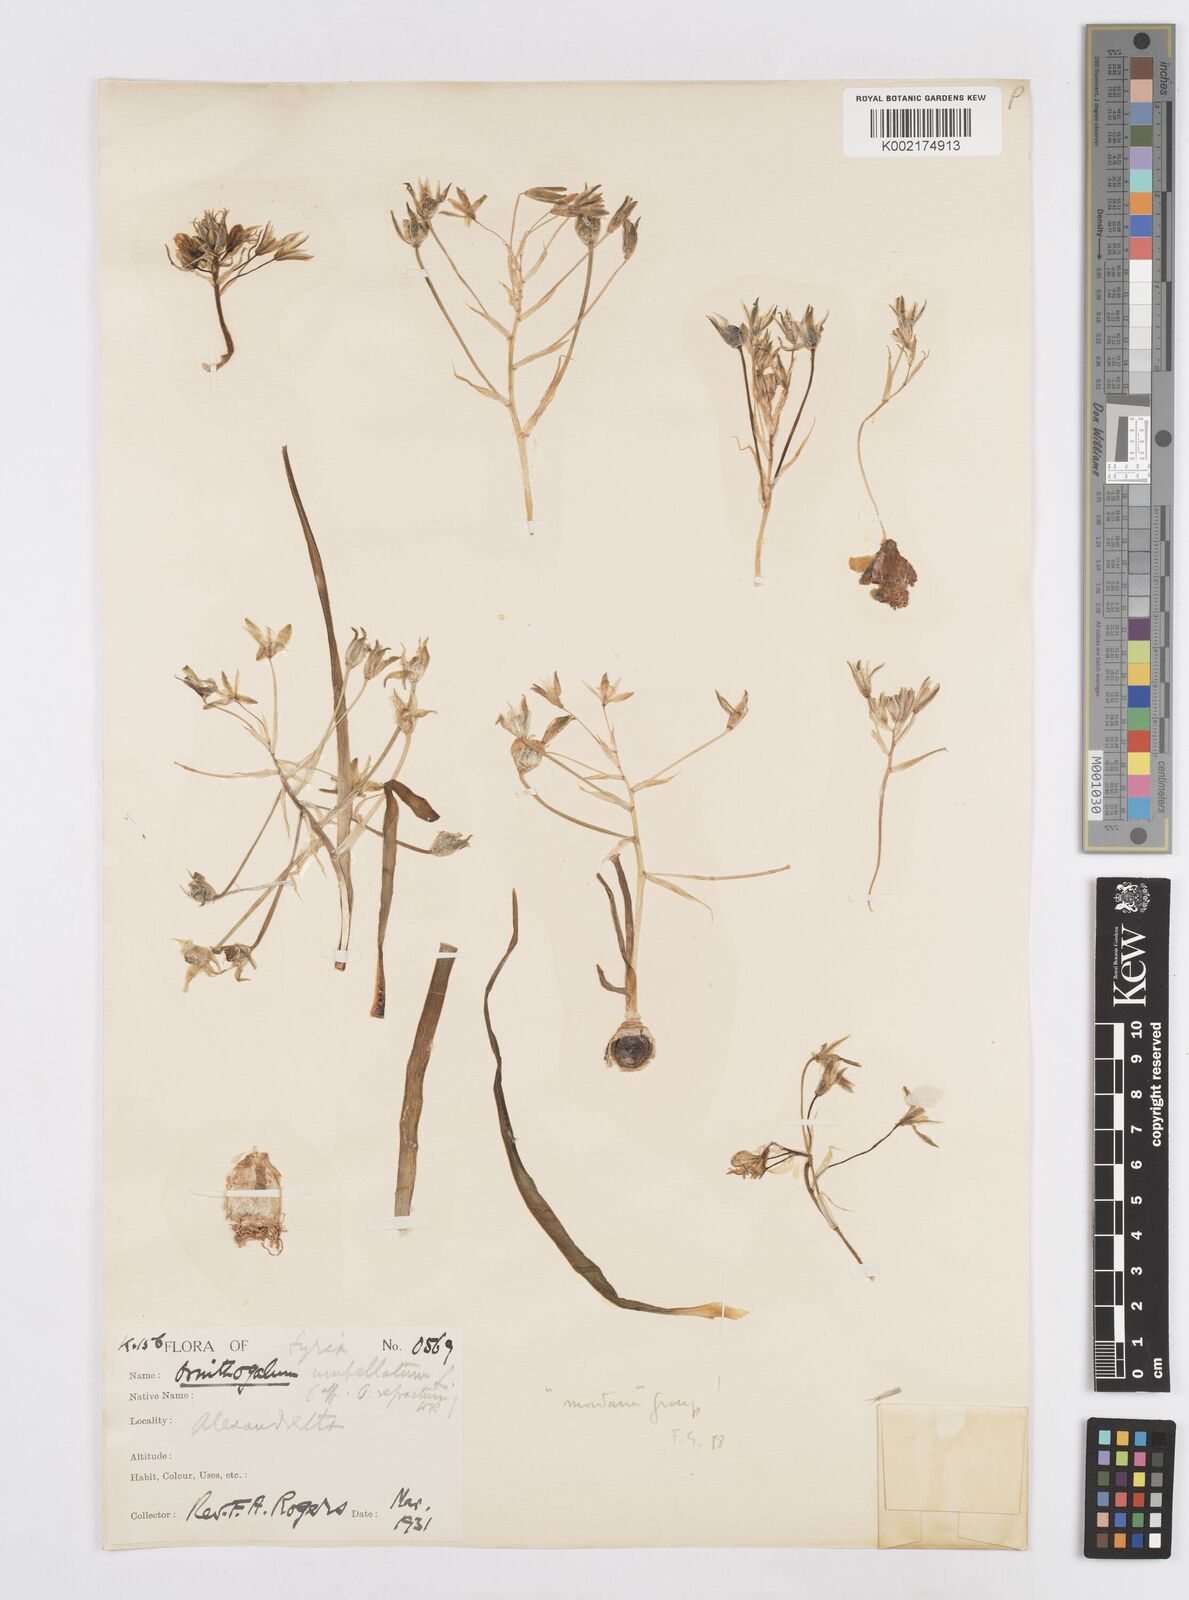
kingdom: Plantae
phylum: Tracheophyta
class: Liliopsida
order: Asparagales
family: Asparagaceae
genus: Ornithogalum
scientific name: Ornithogalum umbellatum
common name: Garden star-of-bethlehem
